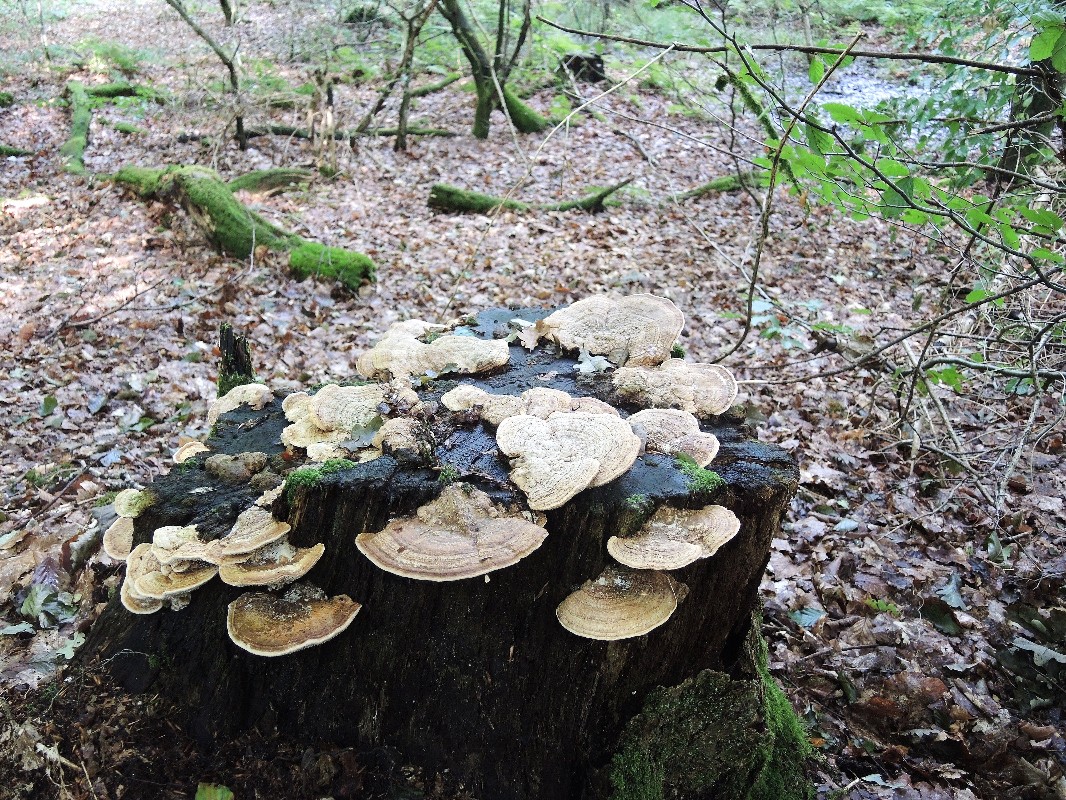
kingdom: Fungi
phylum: Basidiomycota
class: Agaricomycetes
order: Polyporales
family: Fomitopsidaceae
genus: Daedalea
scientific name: Daedalea quercina
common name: ege-labyrintsvamp
